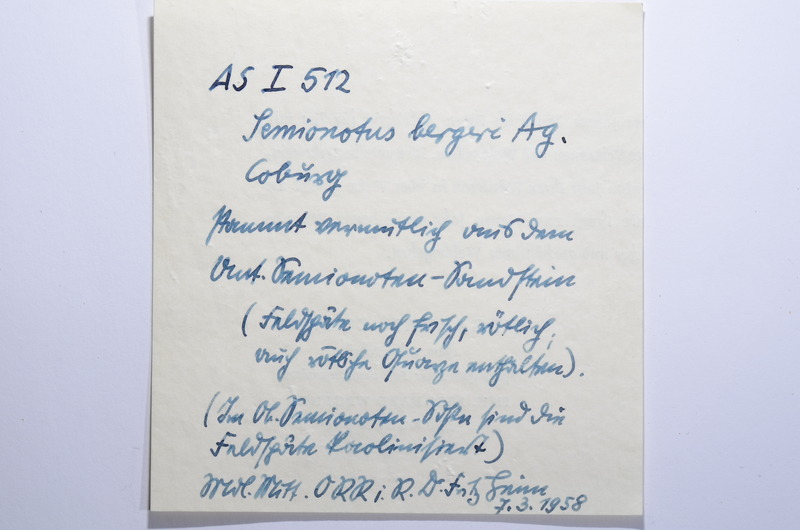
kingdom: Animalia
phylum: Chordata
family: Semionotidae
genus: Semionotus
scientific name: Semionotus bergeri
